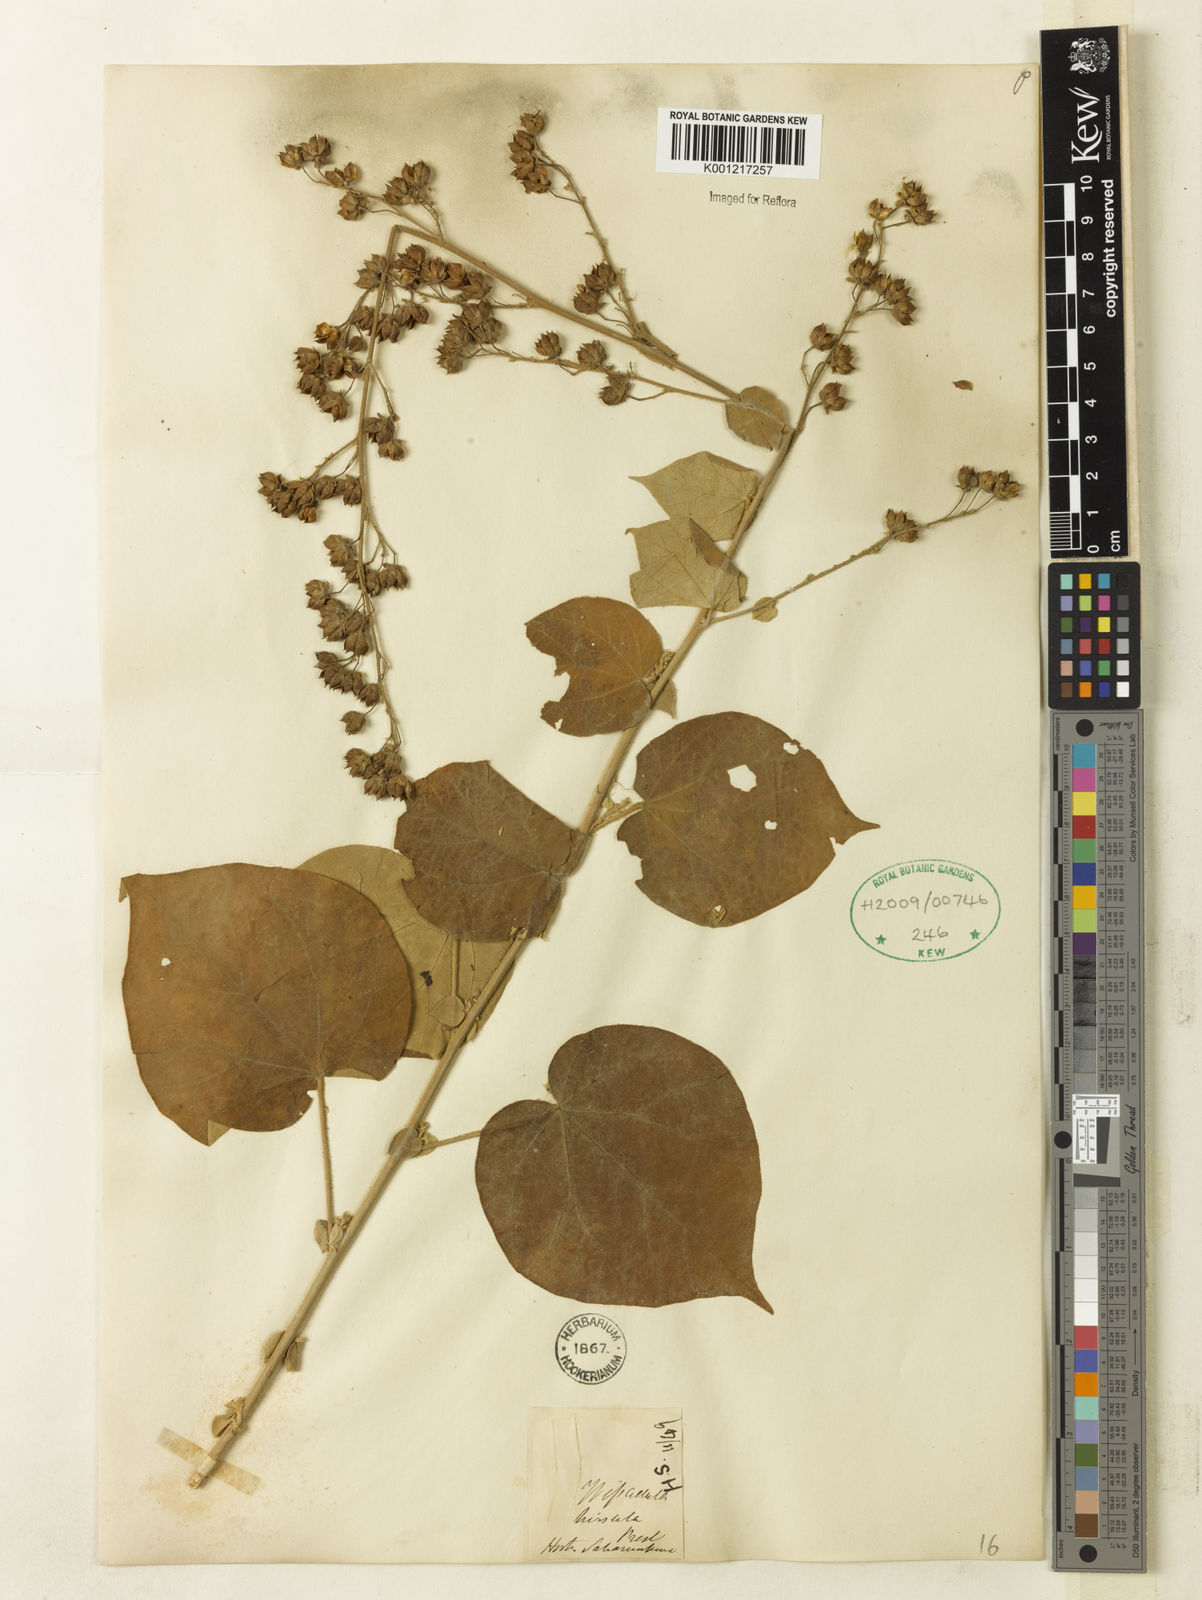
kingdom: Plantae
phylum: Tracheophyta
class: Magnoliopsida
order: Malvales
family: Malvaceae
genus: Wissadula
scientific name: Wissadula amplissima
